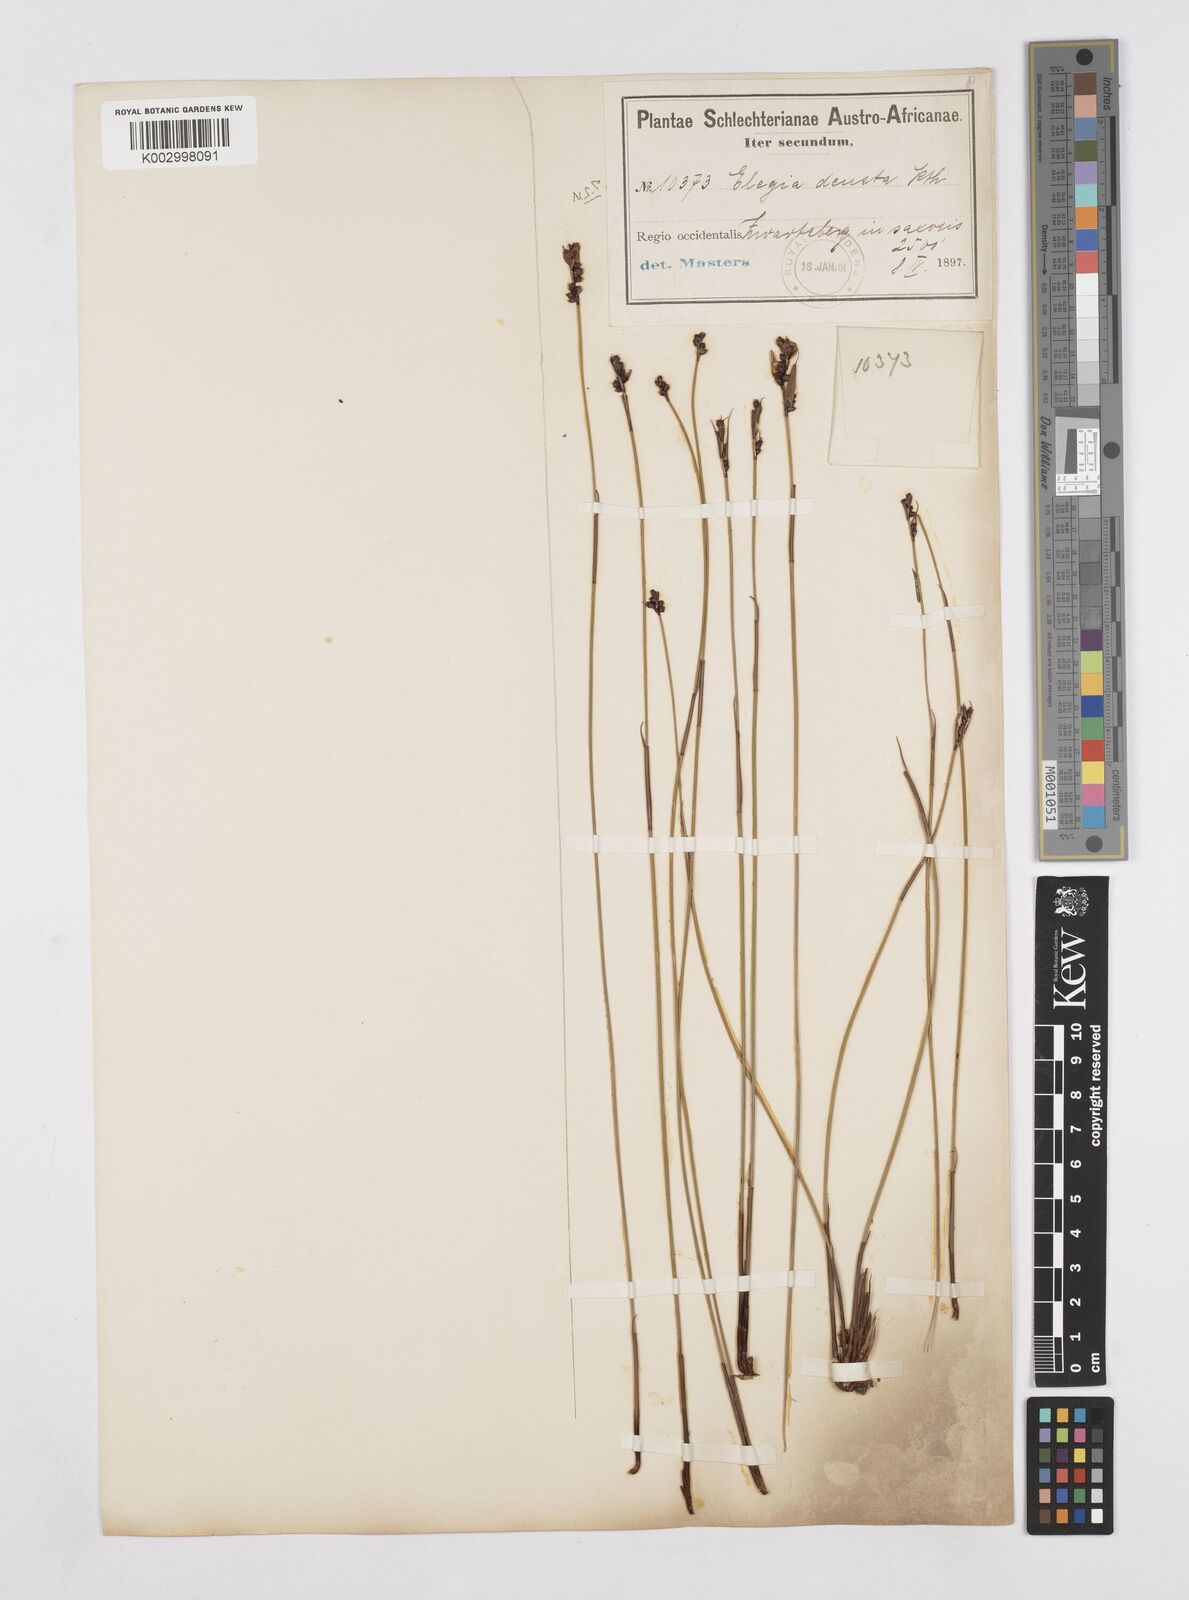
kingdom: Plantae
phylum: Tracheophyta
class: Liliopsida
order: Poales
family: Restionaceae
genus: Elegia
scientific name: Elegia deusta
